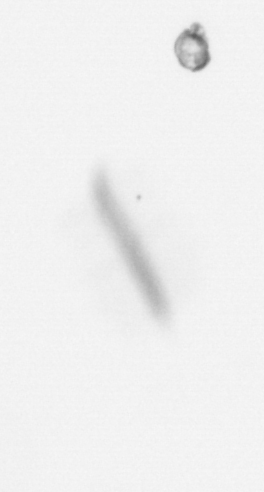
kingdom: Chromista
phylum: Ochrophyta
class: Bacillariophyceae
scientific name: Bacillariophyceae
